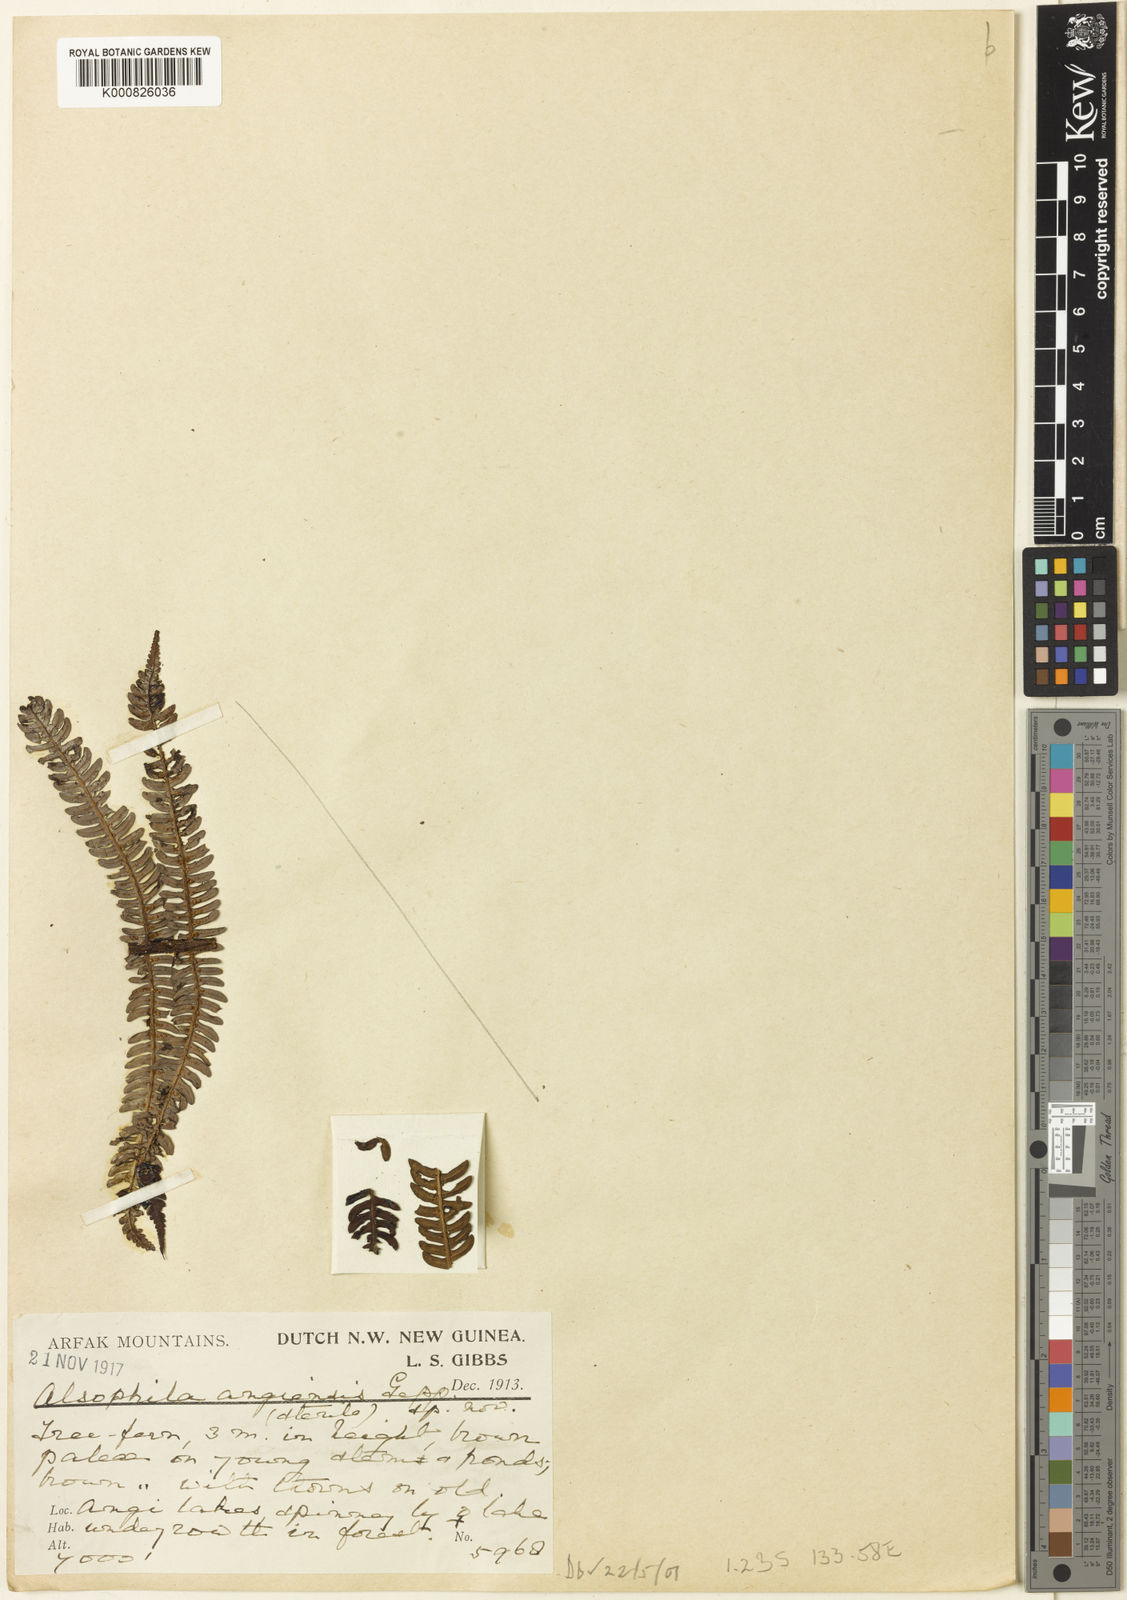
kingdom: Plantae
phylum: Tracheophyta
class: Polypodiopsida
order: Cyatheales
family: Cyatheaceae
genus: Sphaeropteris
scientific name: Sphaeropteris angiensis
